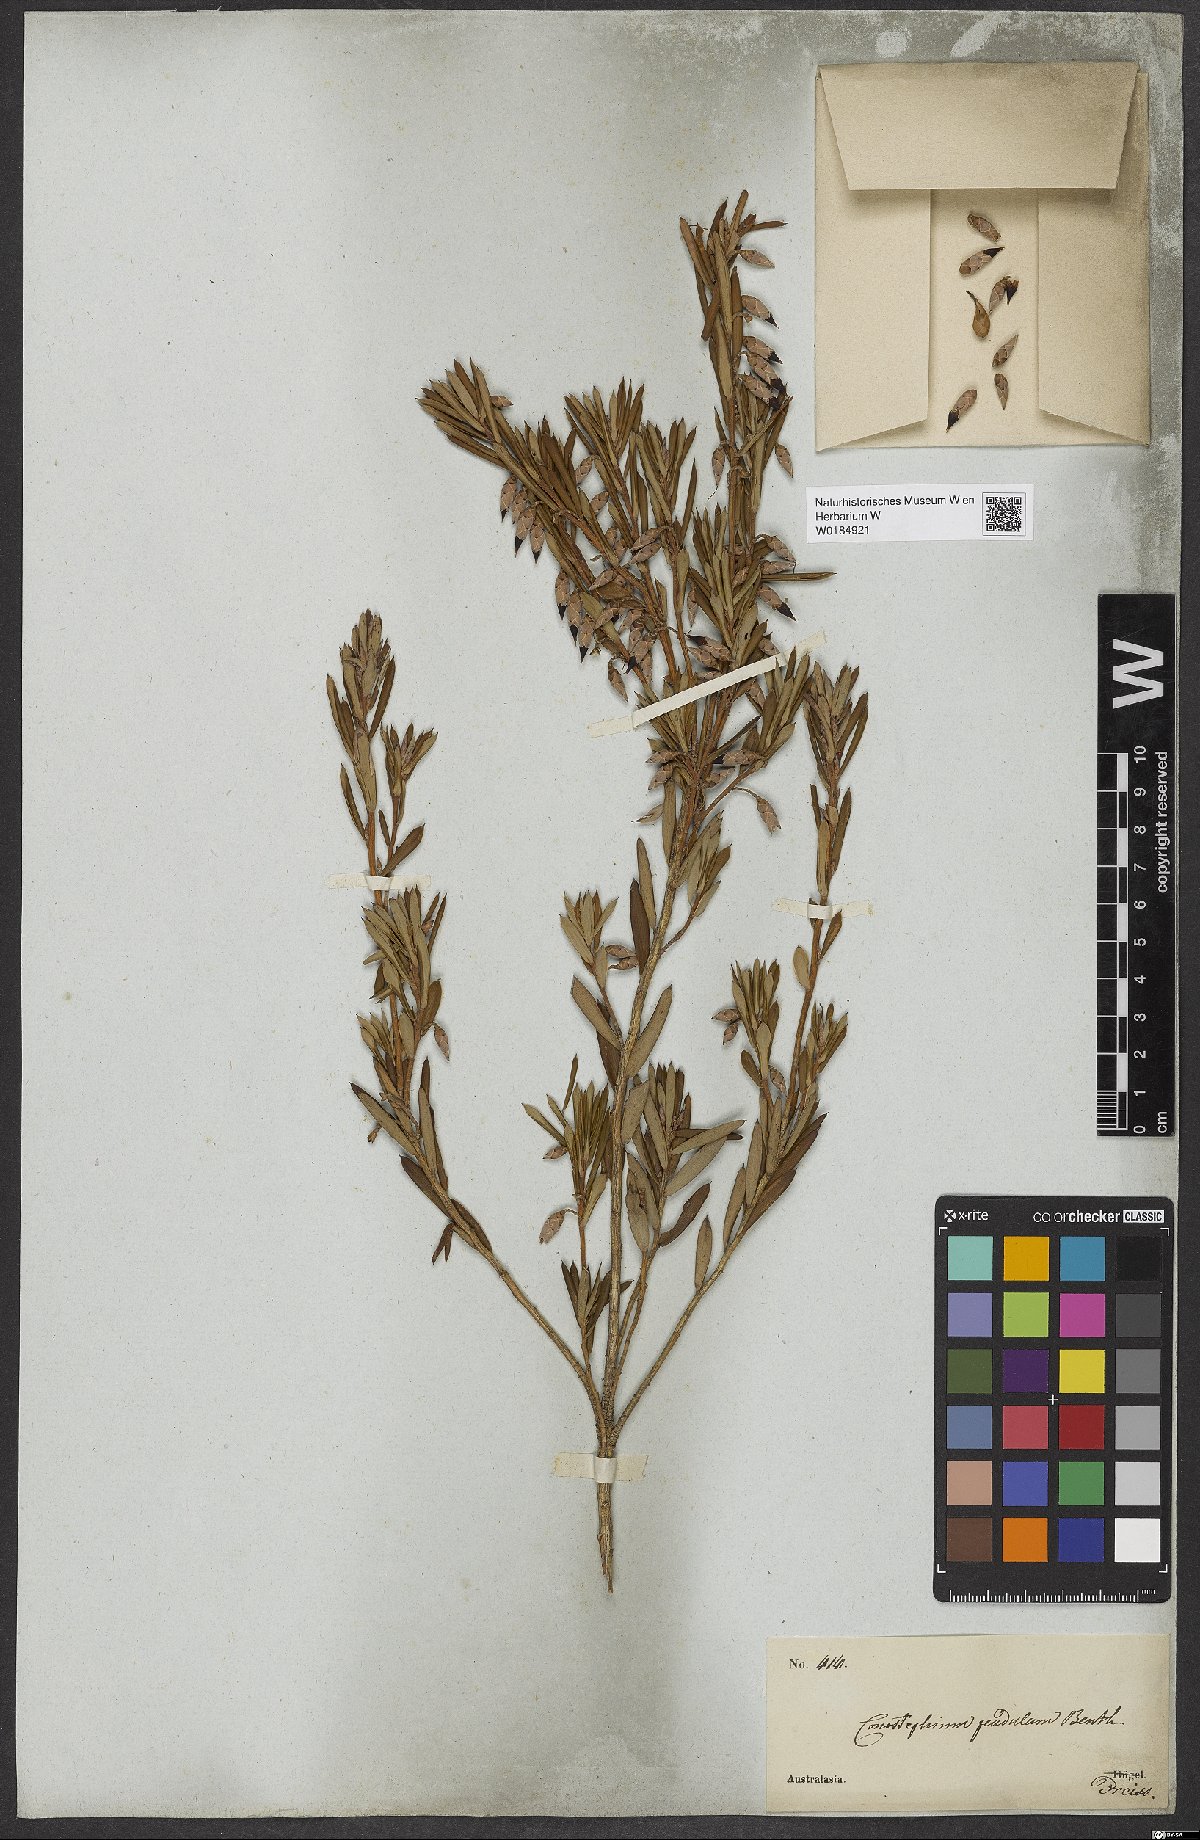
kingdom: Plantae
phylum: Tracheophyta
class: Magnoliopsida
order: Ericales
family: Ericaceae
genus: Conostephium
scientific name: Conostephium pendulum
